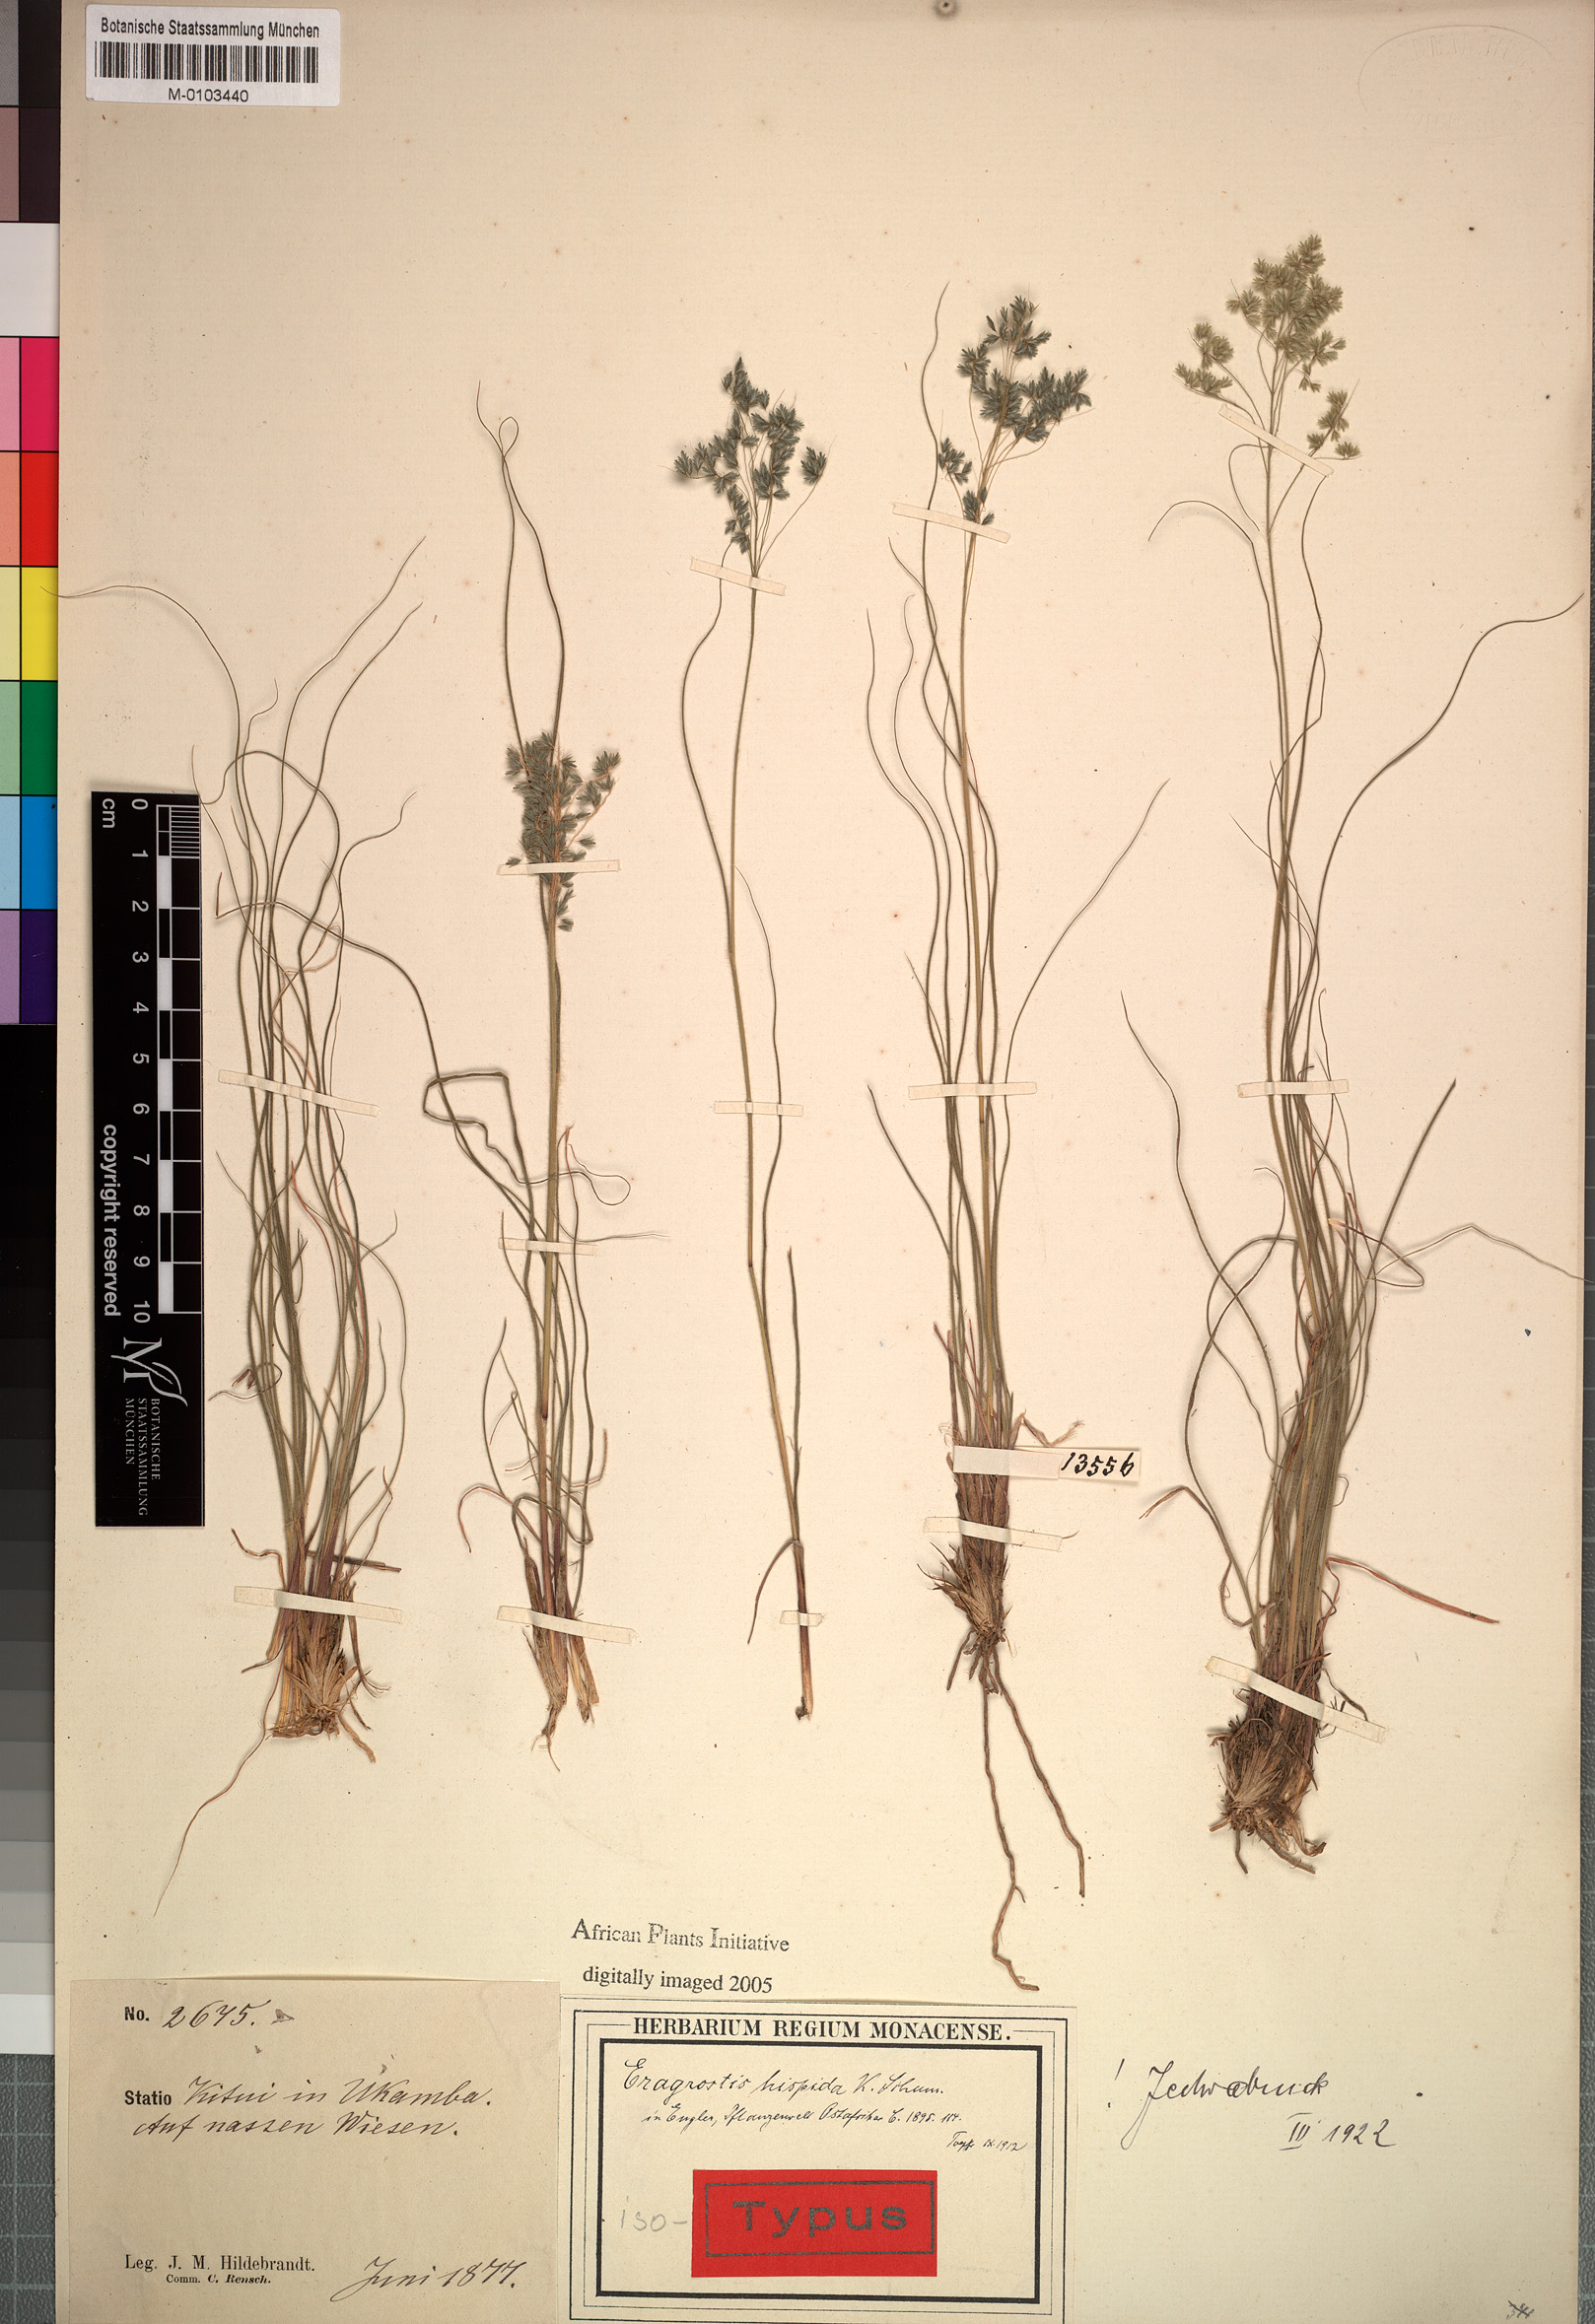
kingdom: Plantae
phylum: Tracheophyta
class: Liliopsida
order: Poales
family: Poaceae
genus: Eragrostis
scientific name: Eragrostis hispida
